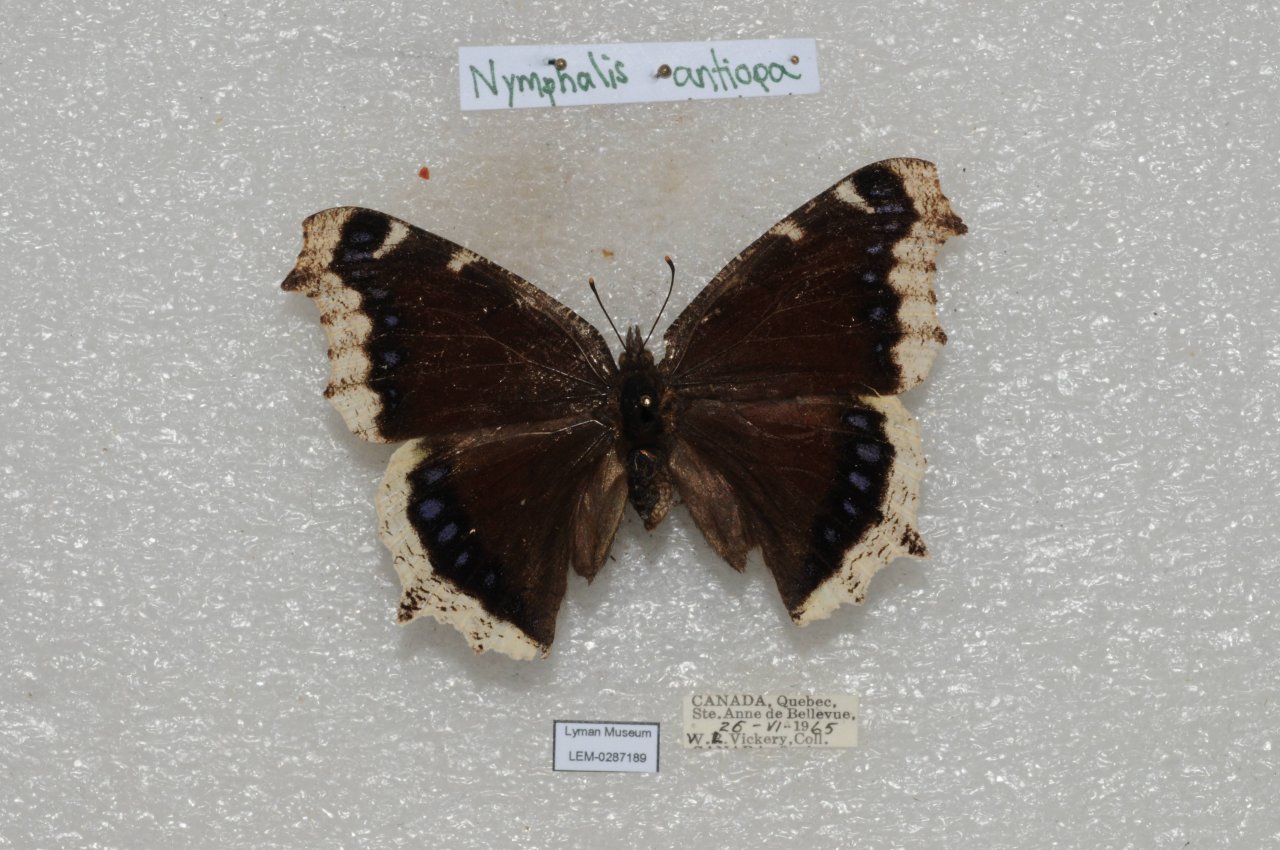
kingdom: Animalia
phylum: Arthropoda
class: Insecta
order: Lepidoptera
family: Nymphalidae
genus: Nymphalis
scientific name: Nymphalis antiopa
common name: Mourning Cloak
